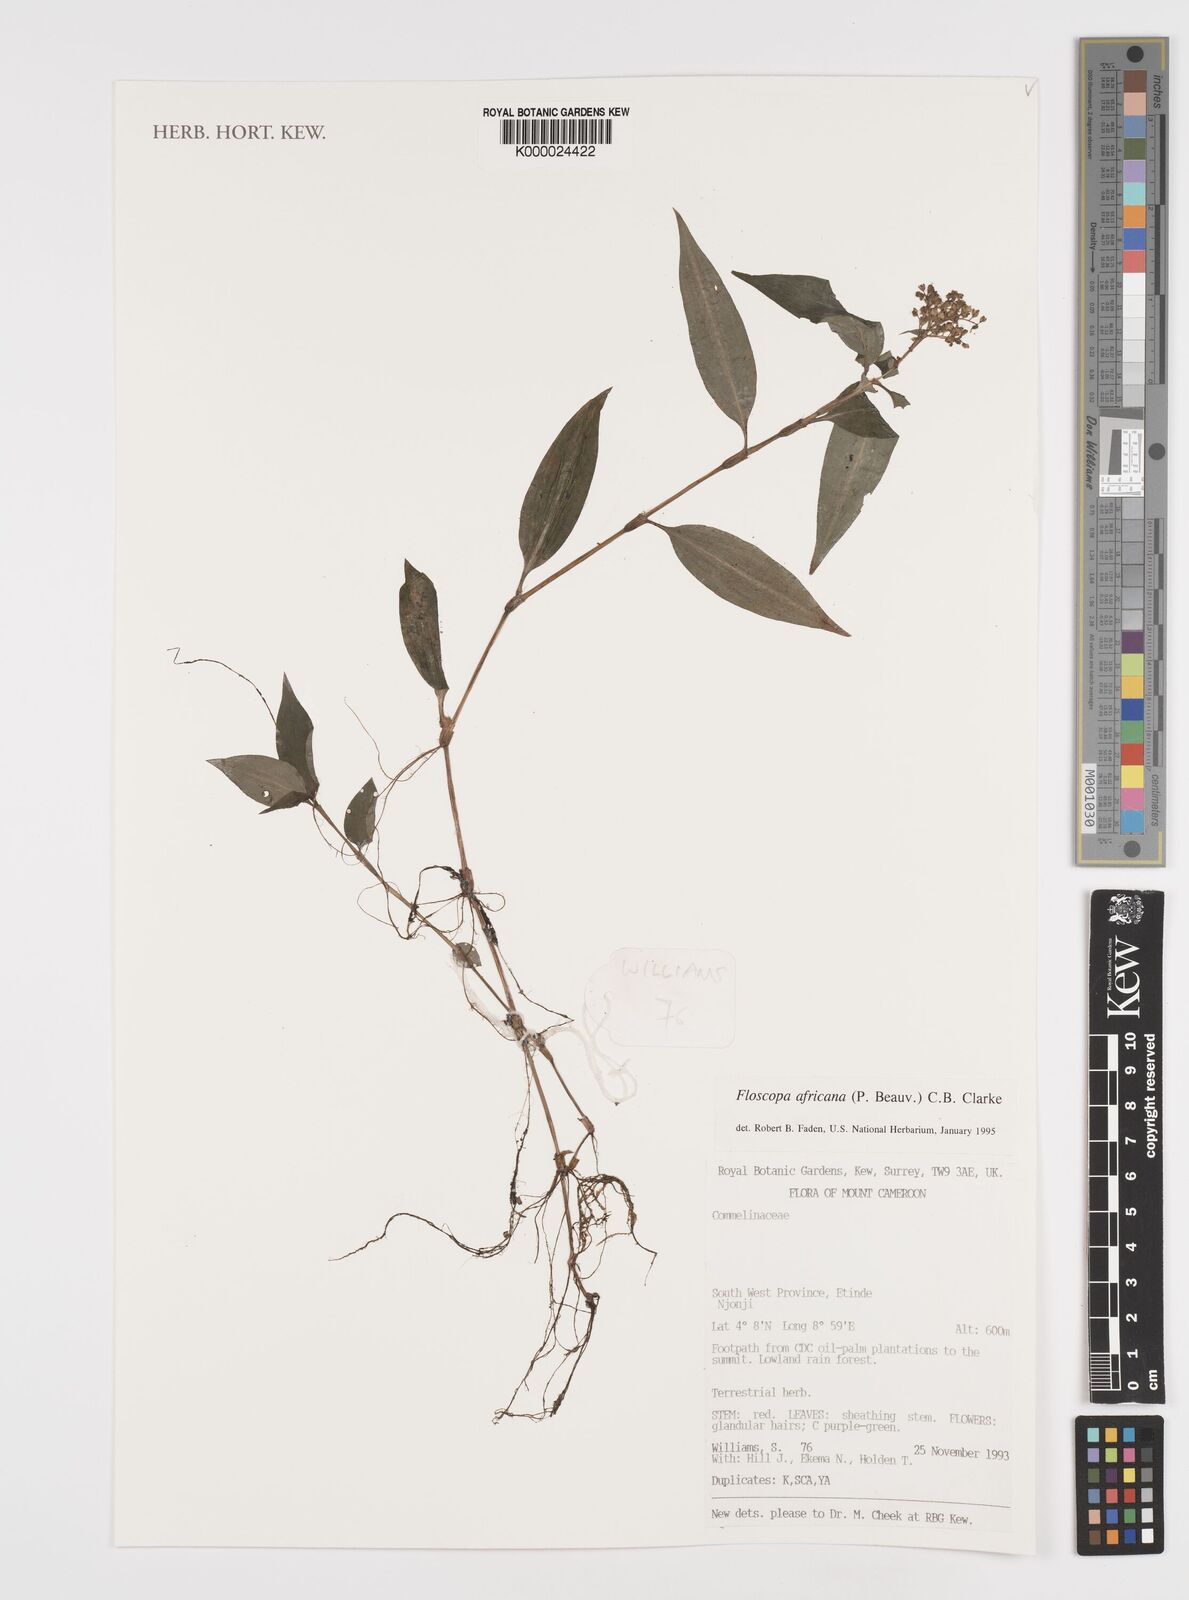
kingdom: Plantae
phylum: Tracheophyta
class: Liliopsida
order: Commelinales
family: Commelinaceae
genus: Floscopa
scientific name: Floscopa africana
